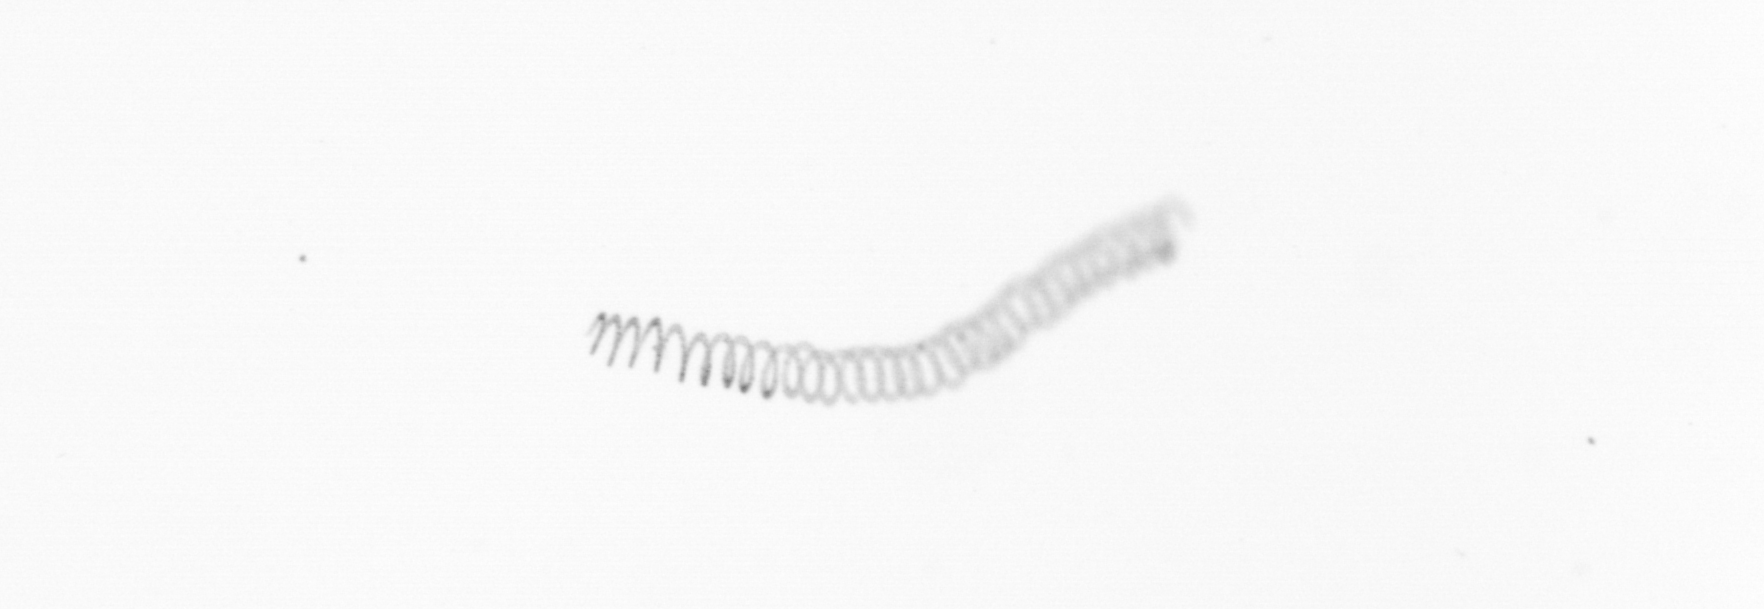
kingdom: Chromista
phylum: Ochrophyta
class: Bacillariophyceae
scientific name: Bacillariophyceae
